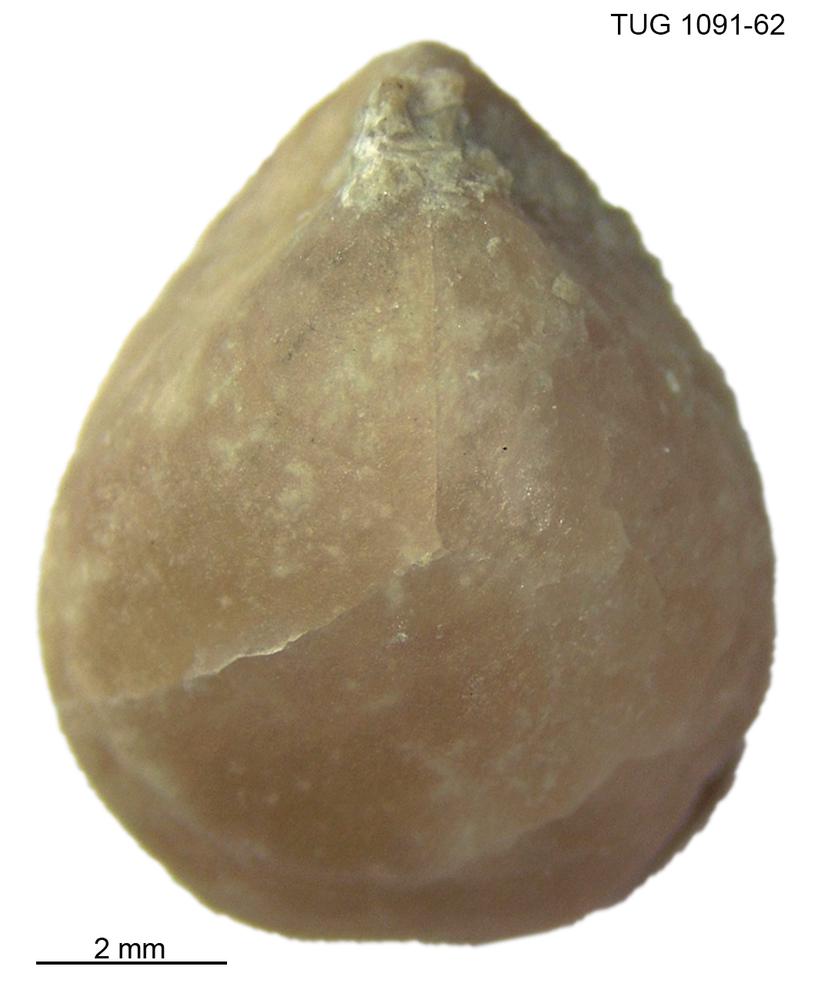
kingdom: Animalia
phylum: Brachiopoda
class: Craniata
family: Trimerellidae
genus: Trimerella
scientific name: Trimerella
